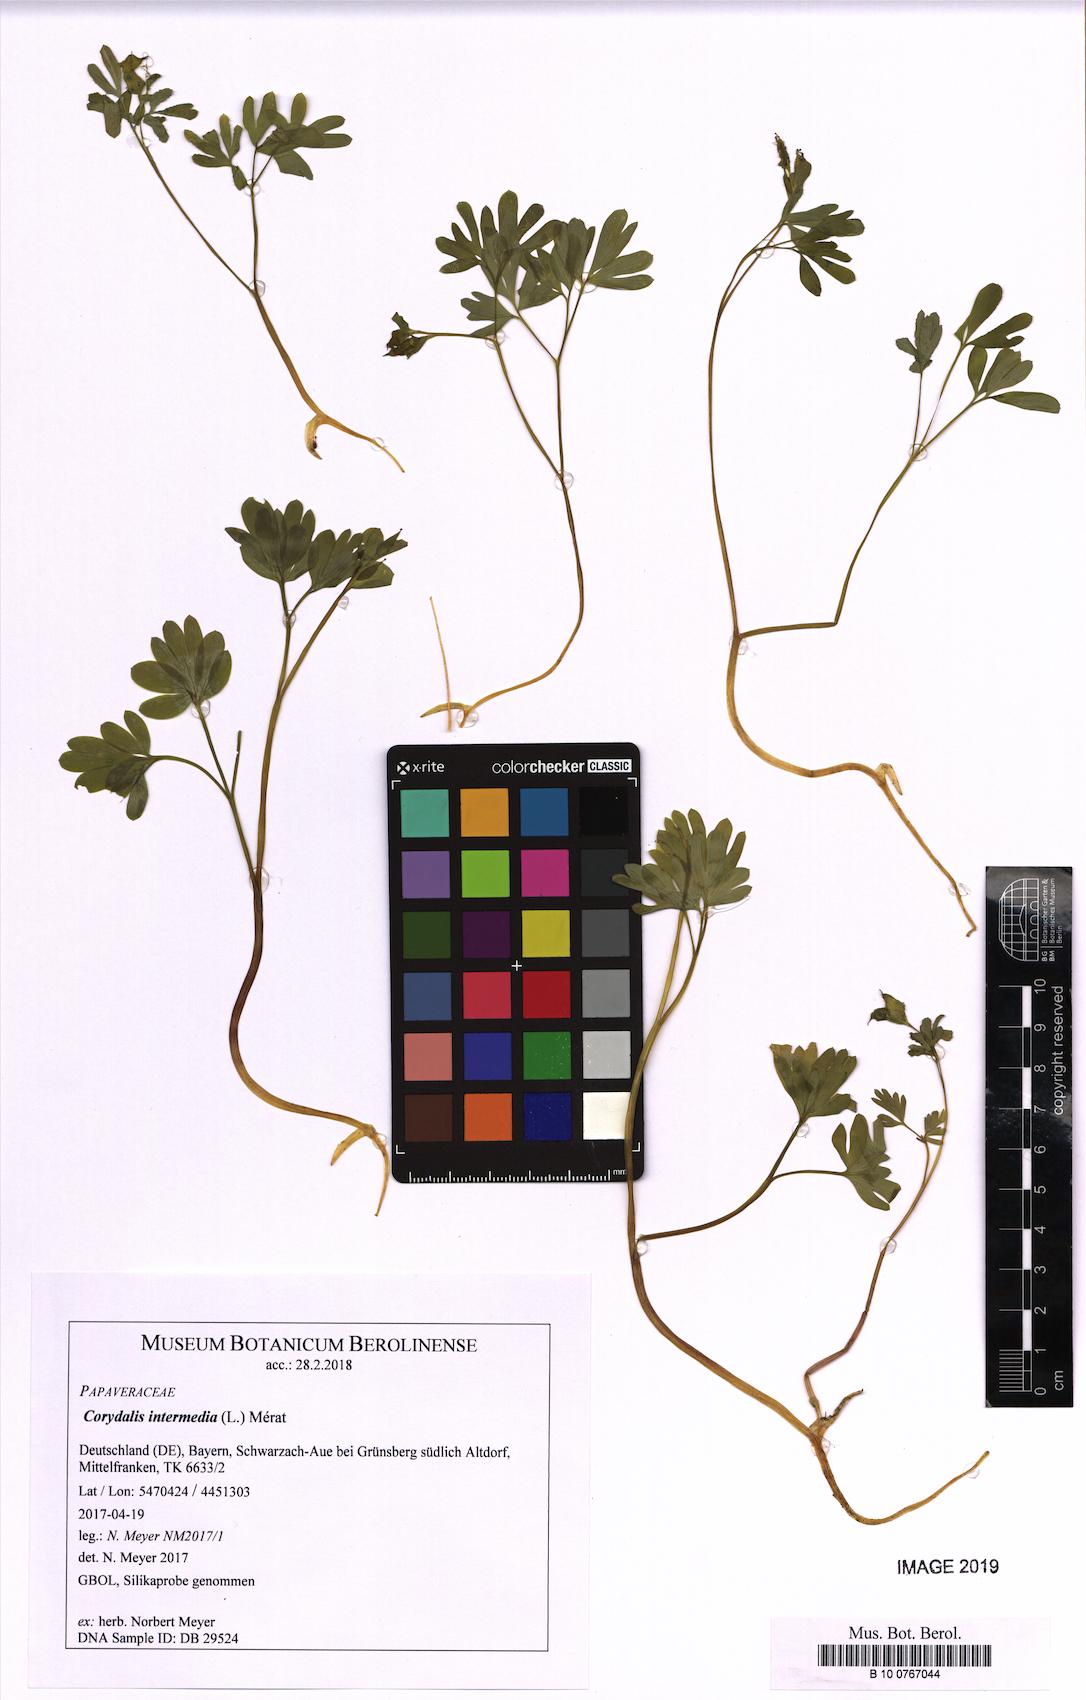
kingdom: Plantae
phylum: Tracheophyta
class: Magnoliopsida
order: Ranunculales
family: Papaveraceae
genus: Corydalis
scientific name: Corydalis intermedia
